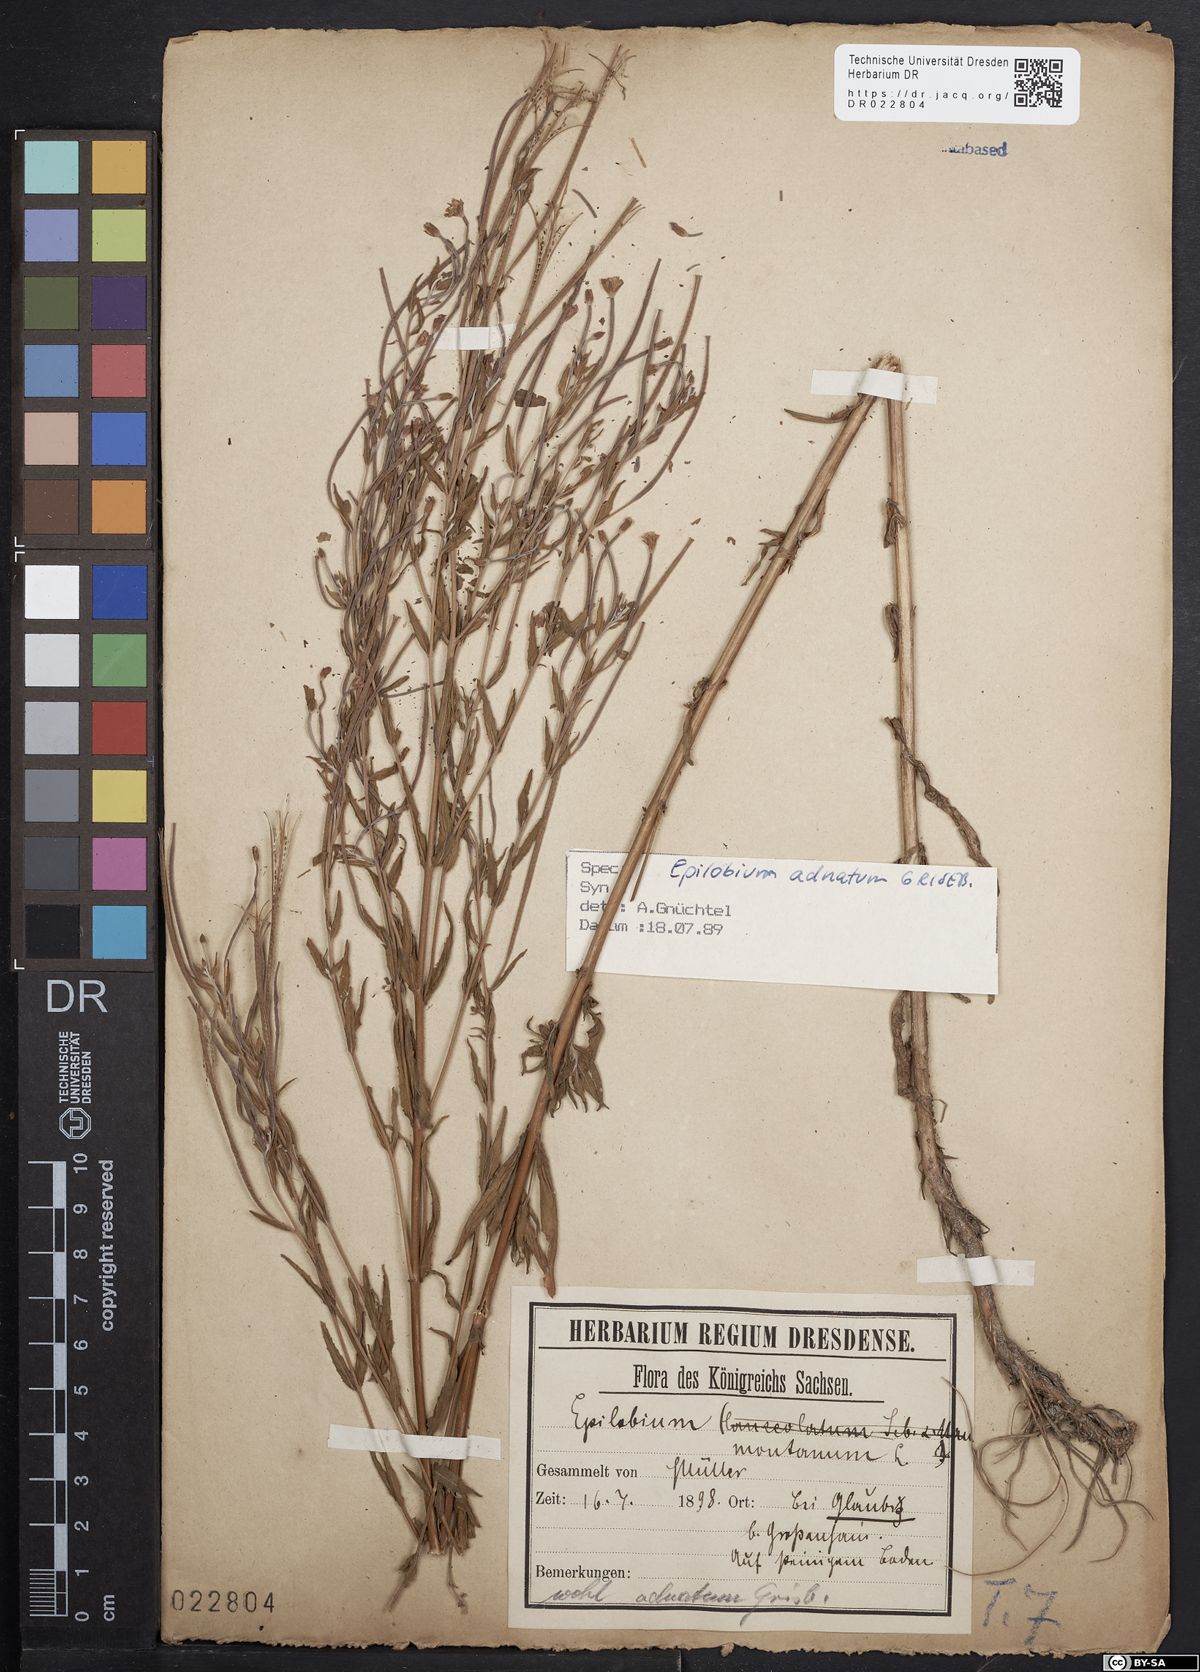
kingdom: Plantae
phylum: Tracheophyta
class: Magnoliopsida
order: Myrtales
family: Onagraceae
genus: Epilobium
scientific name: Epilobium tetragonum
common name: Square-stemmed willowherb
